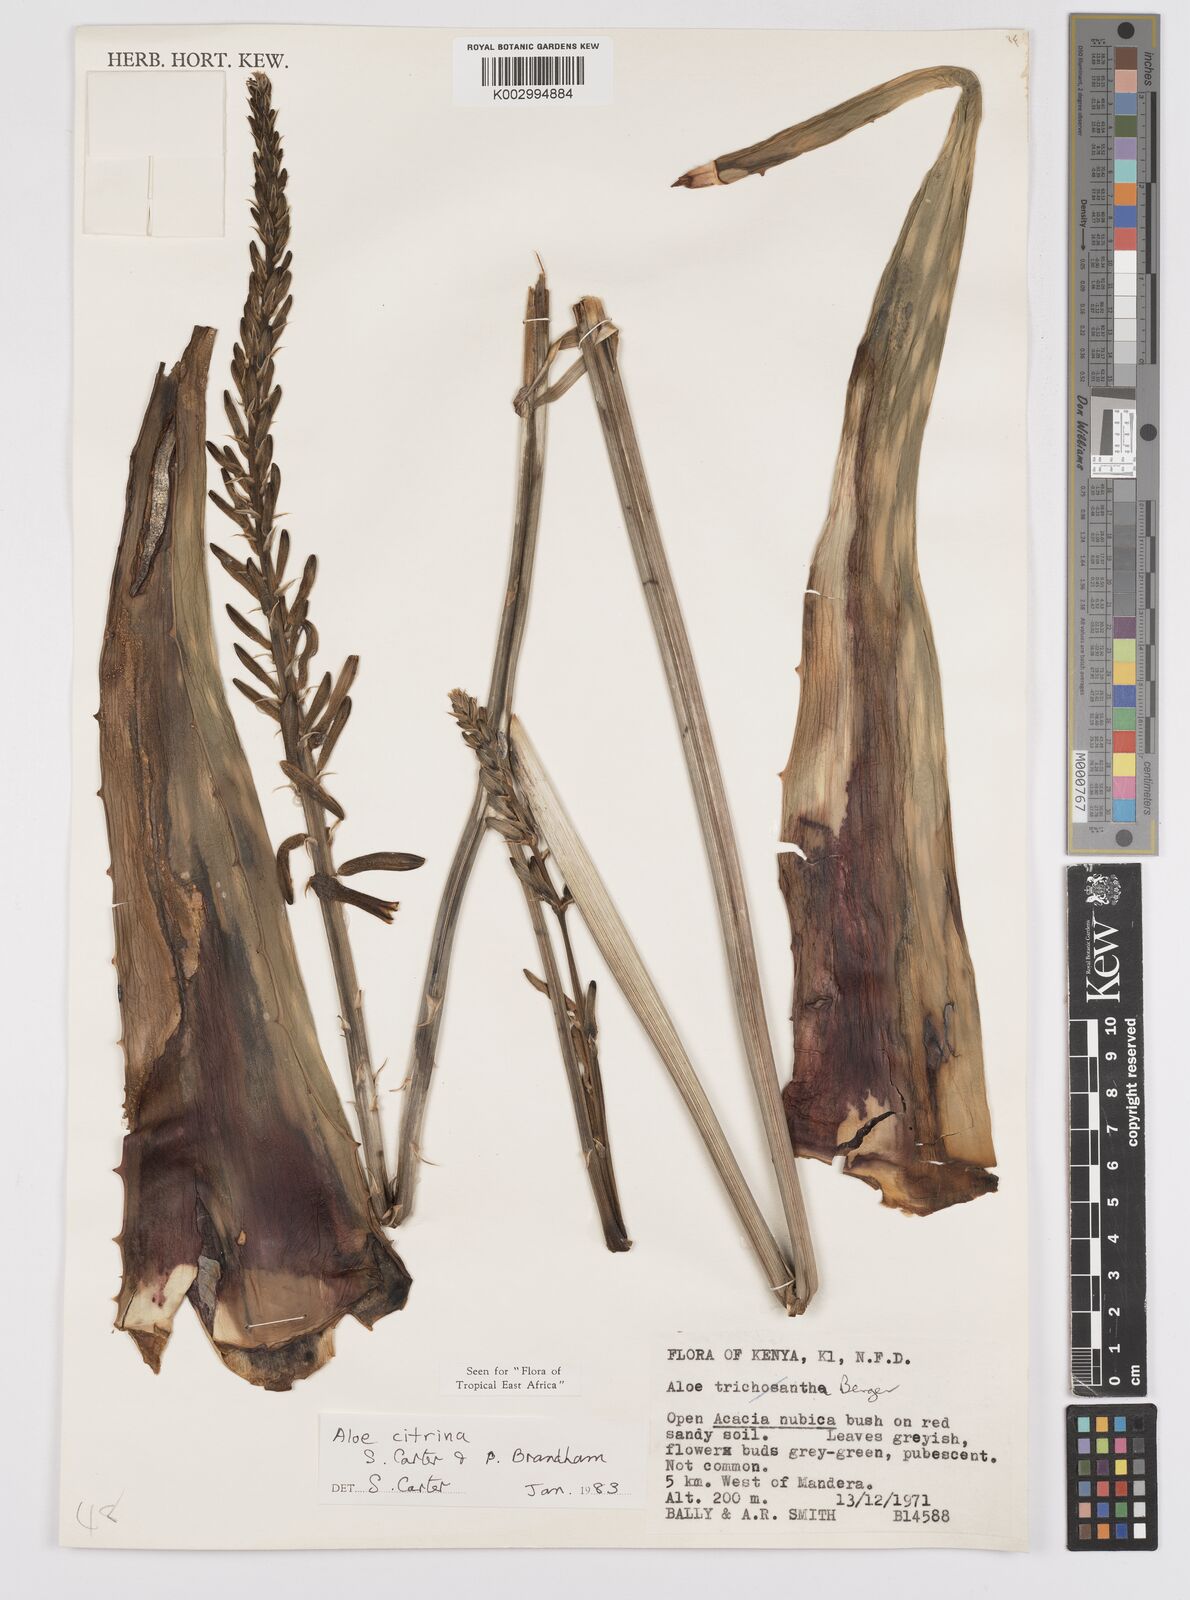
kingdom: Plantae
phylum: Tracheophyta
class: Liliopsida
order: Asparagales
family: Asphodelaceae
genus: Aloe
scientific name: Aloe citrina
